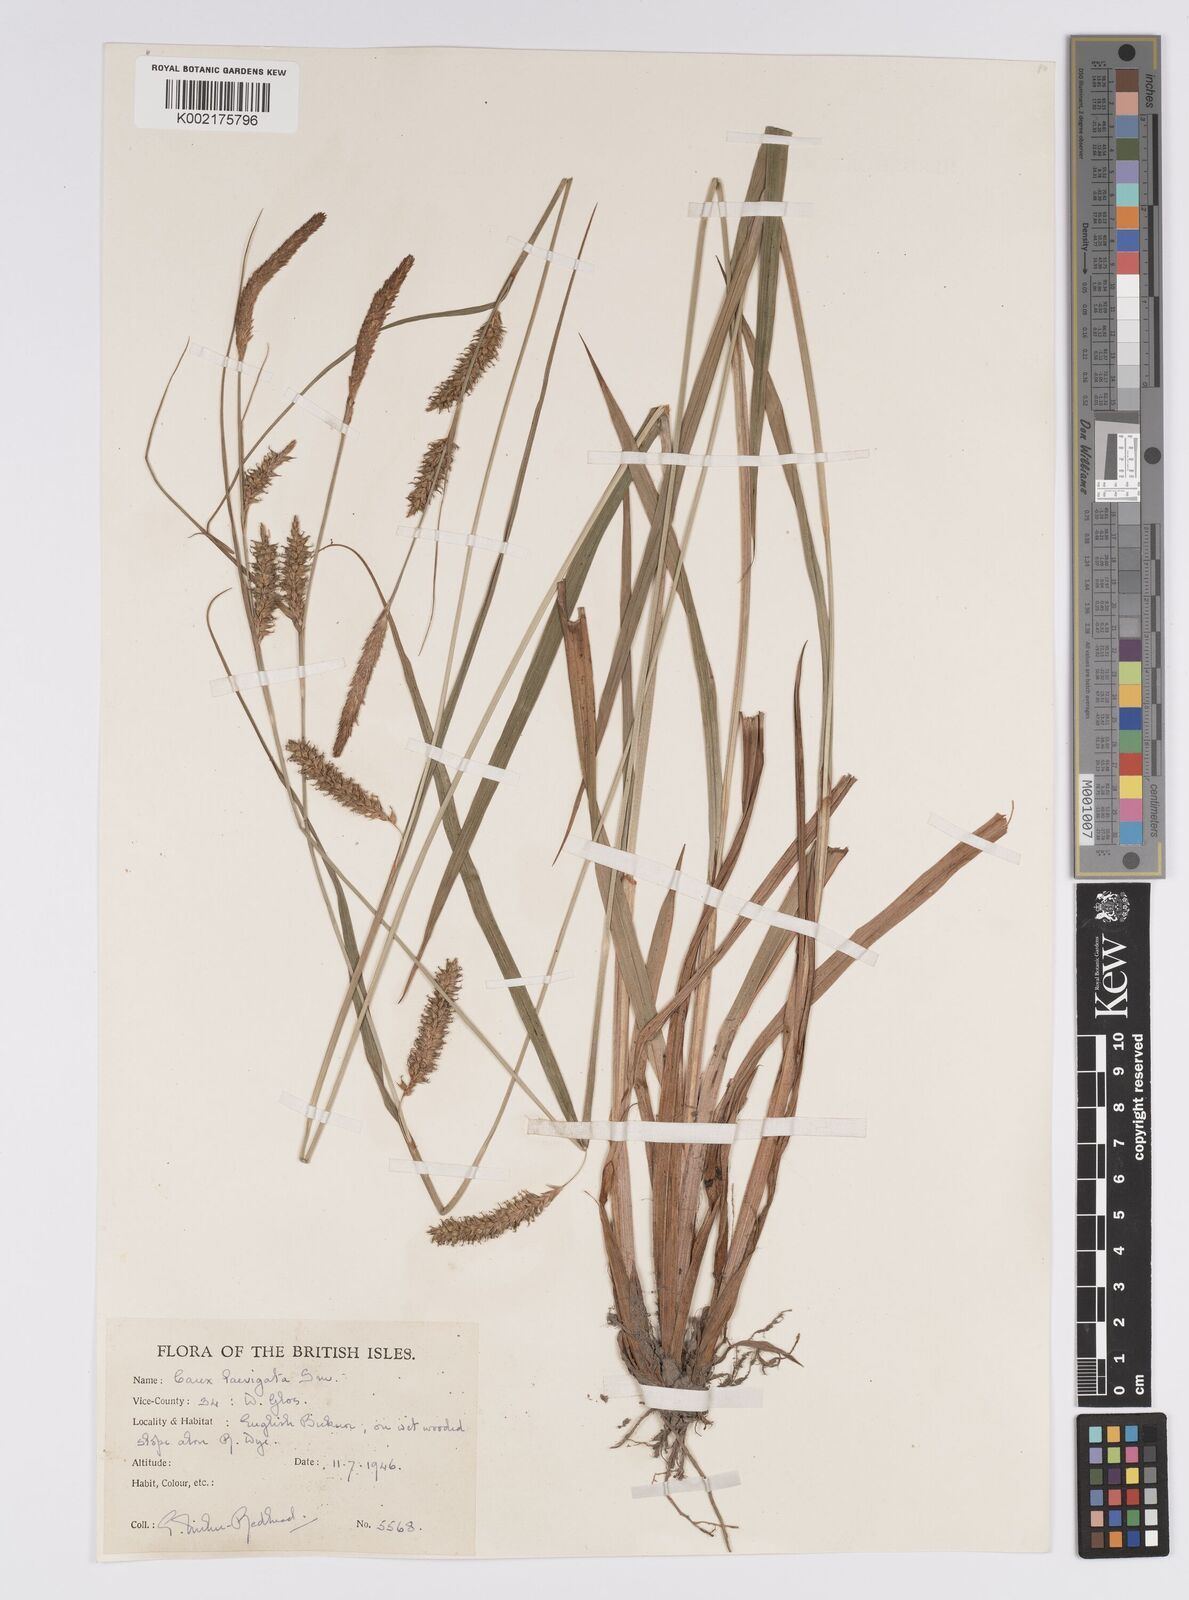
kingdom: Plantae
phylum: Tracheophyta
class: Liliopsida
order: Poales
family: Cyperaceae
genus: Carex
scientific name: Carex laevigata
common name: Smooth-stalked sedge
